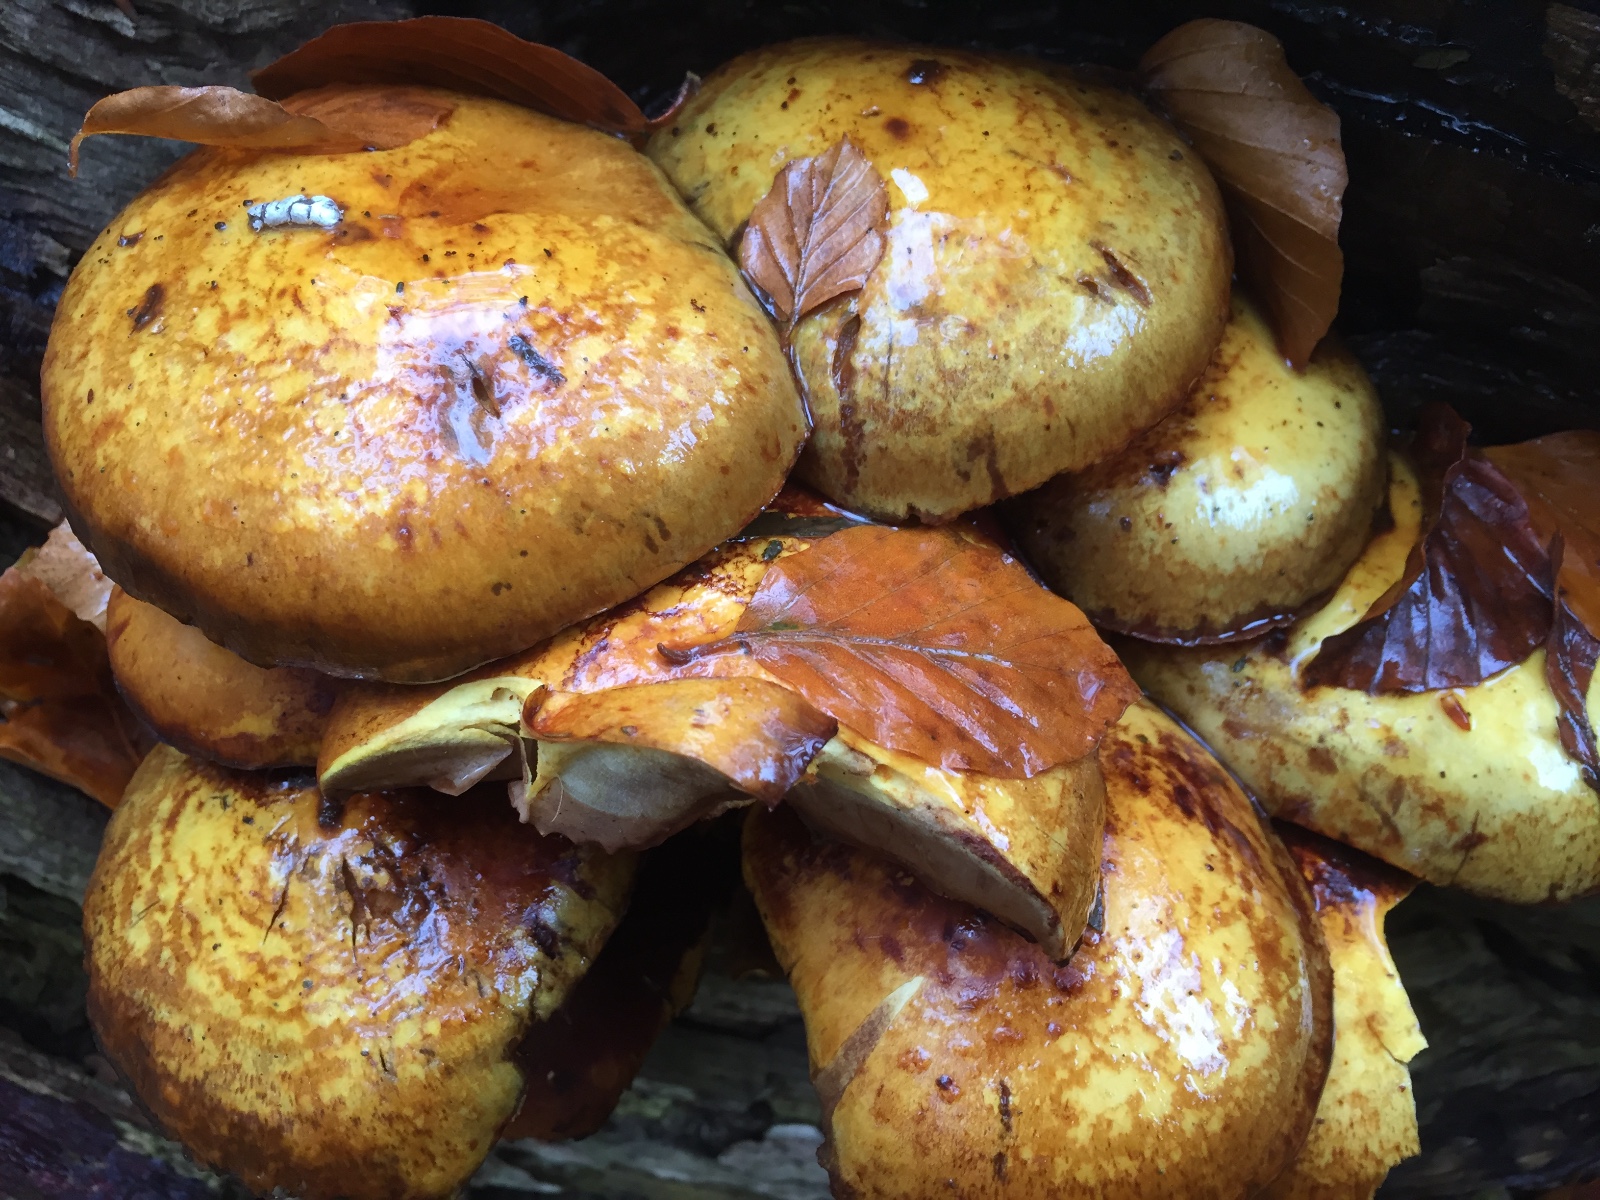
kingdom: Fungi
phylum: Basidiomycota
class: Agaricomycetes
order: Agaricales
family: Strophariaceae
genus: Pholiota
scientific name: Pholiota adiposa
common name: højtsiddende skælhat
